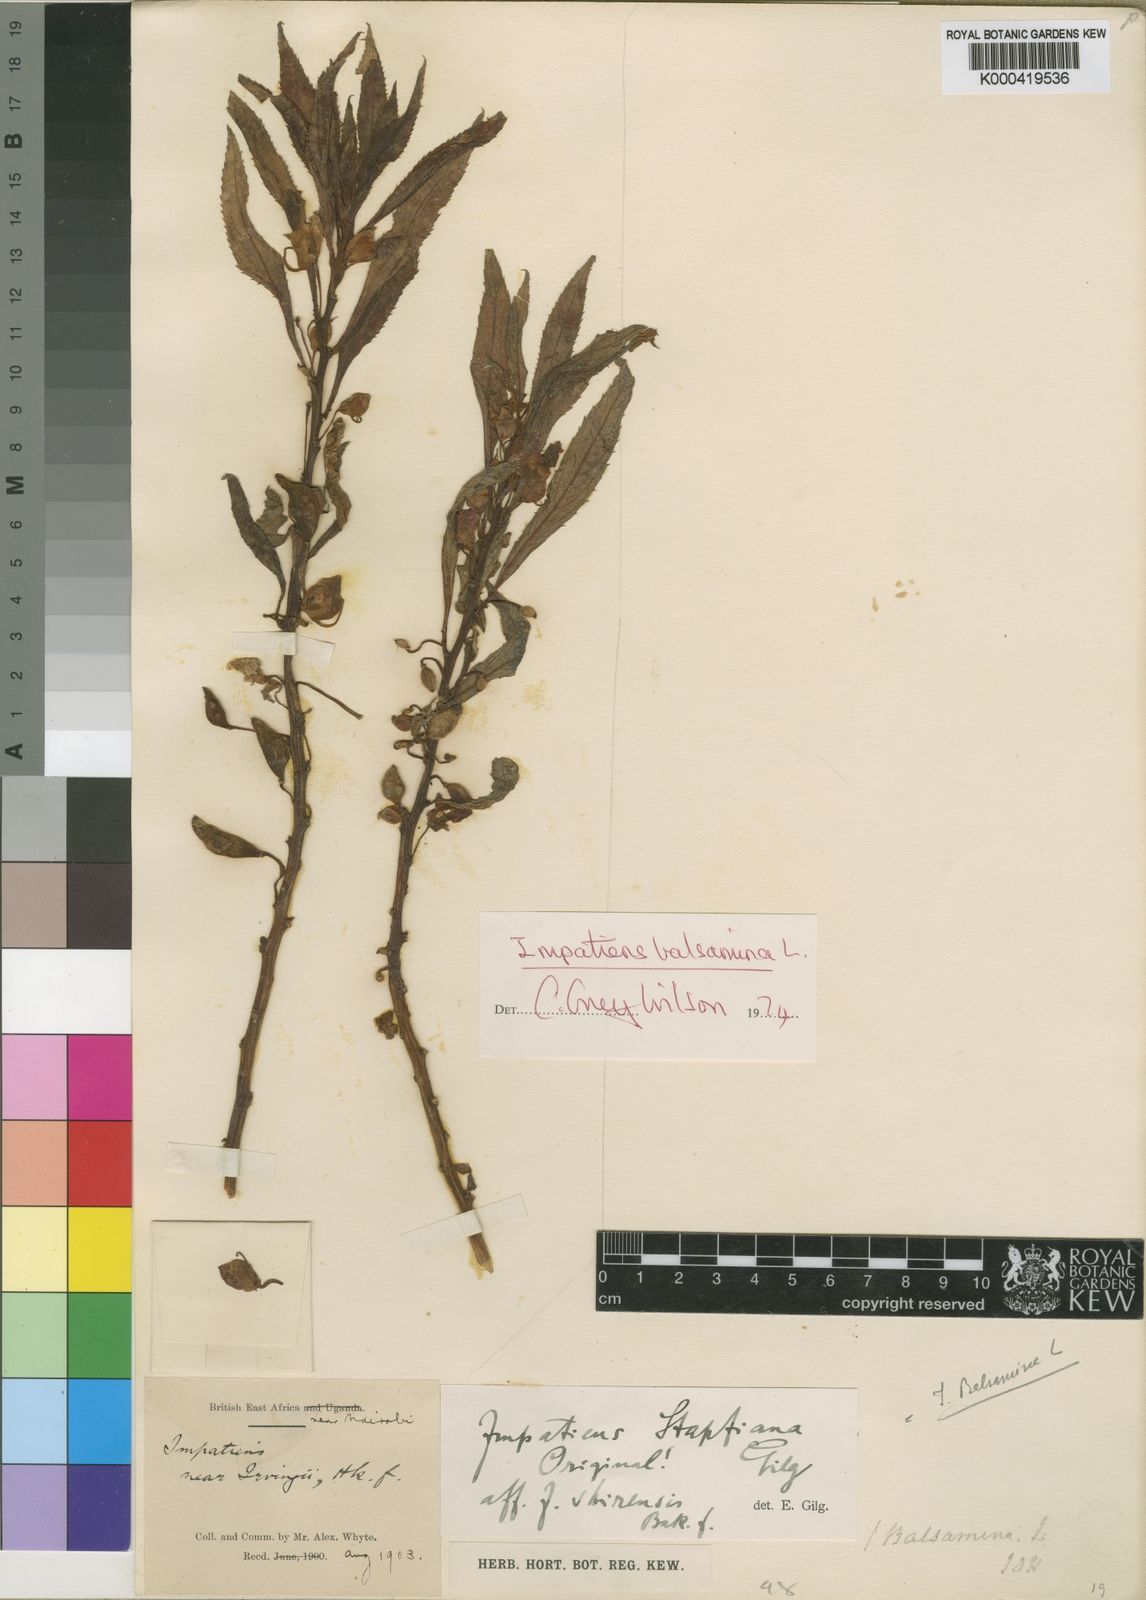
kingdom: Plantae
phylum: Tracheophyta
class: Magnoliopsida
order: Ericales
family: Balsaminaceae
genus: Impatiens
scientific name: Impatiens balsamina
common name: Balsam
